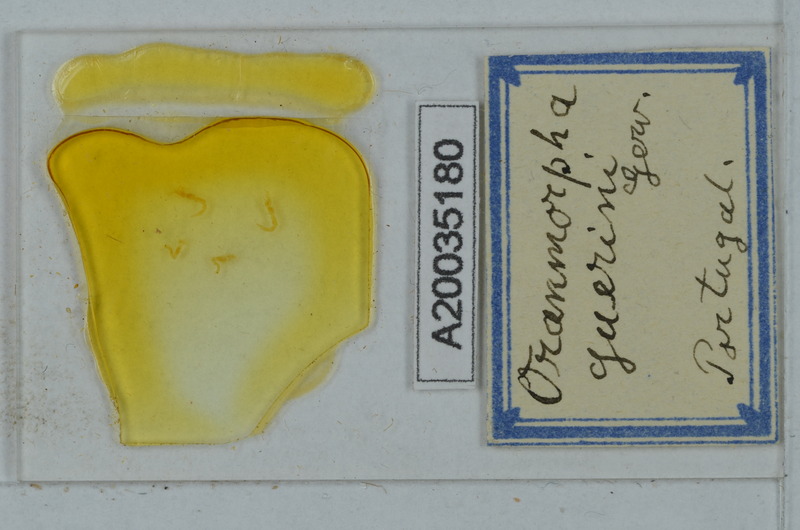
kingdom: Animalia
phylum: Arthropoda
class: Diplopoda
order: Polydesmida
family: Paradoxosomatidae
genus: Oranmorpha
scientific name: Oranmorpha guerinii
